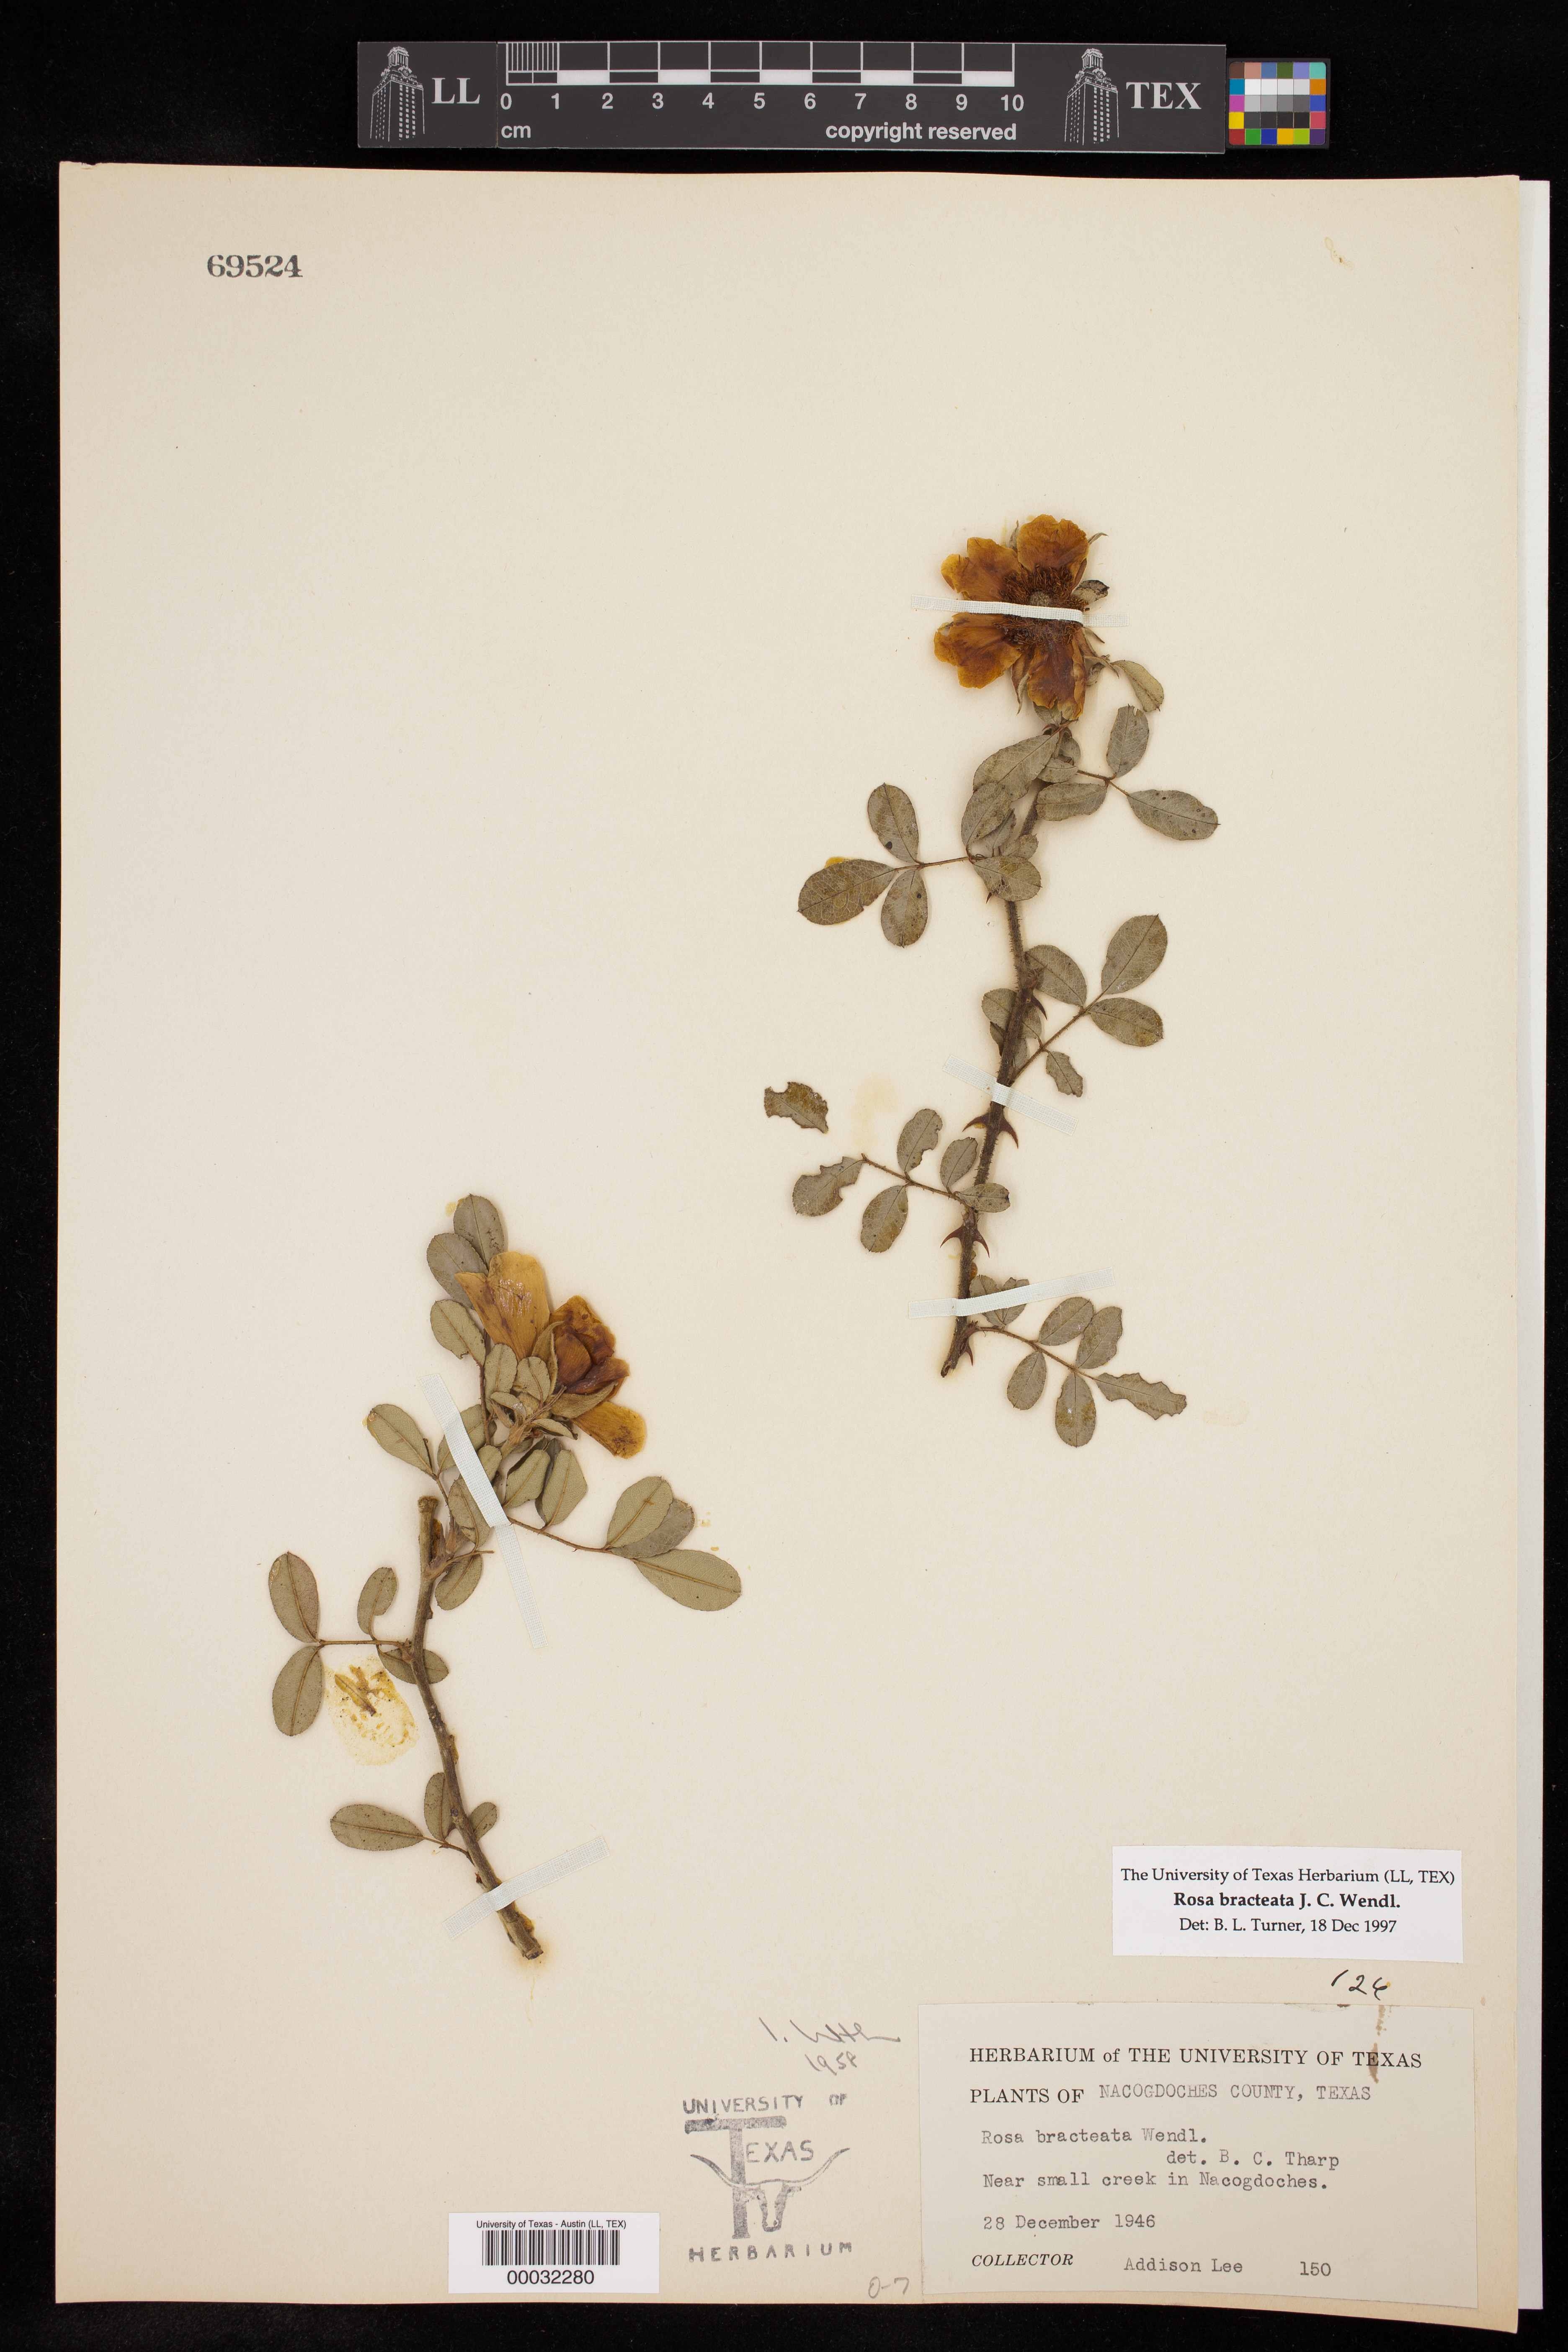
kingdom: Plantae
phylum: Tracheophyta
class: Magnoliopsida
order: Rosales
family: Rosaceae
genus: Rosa
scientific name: Rosa bracteata
